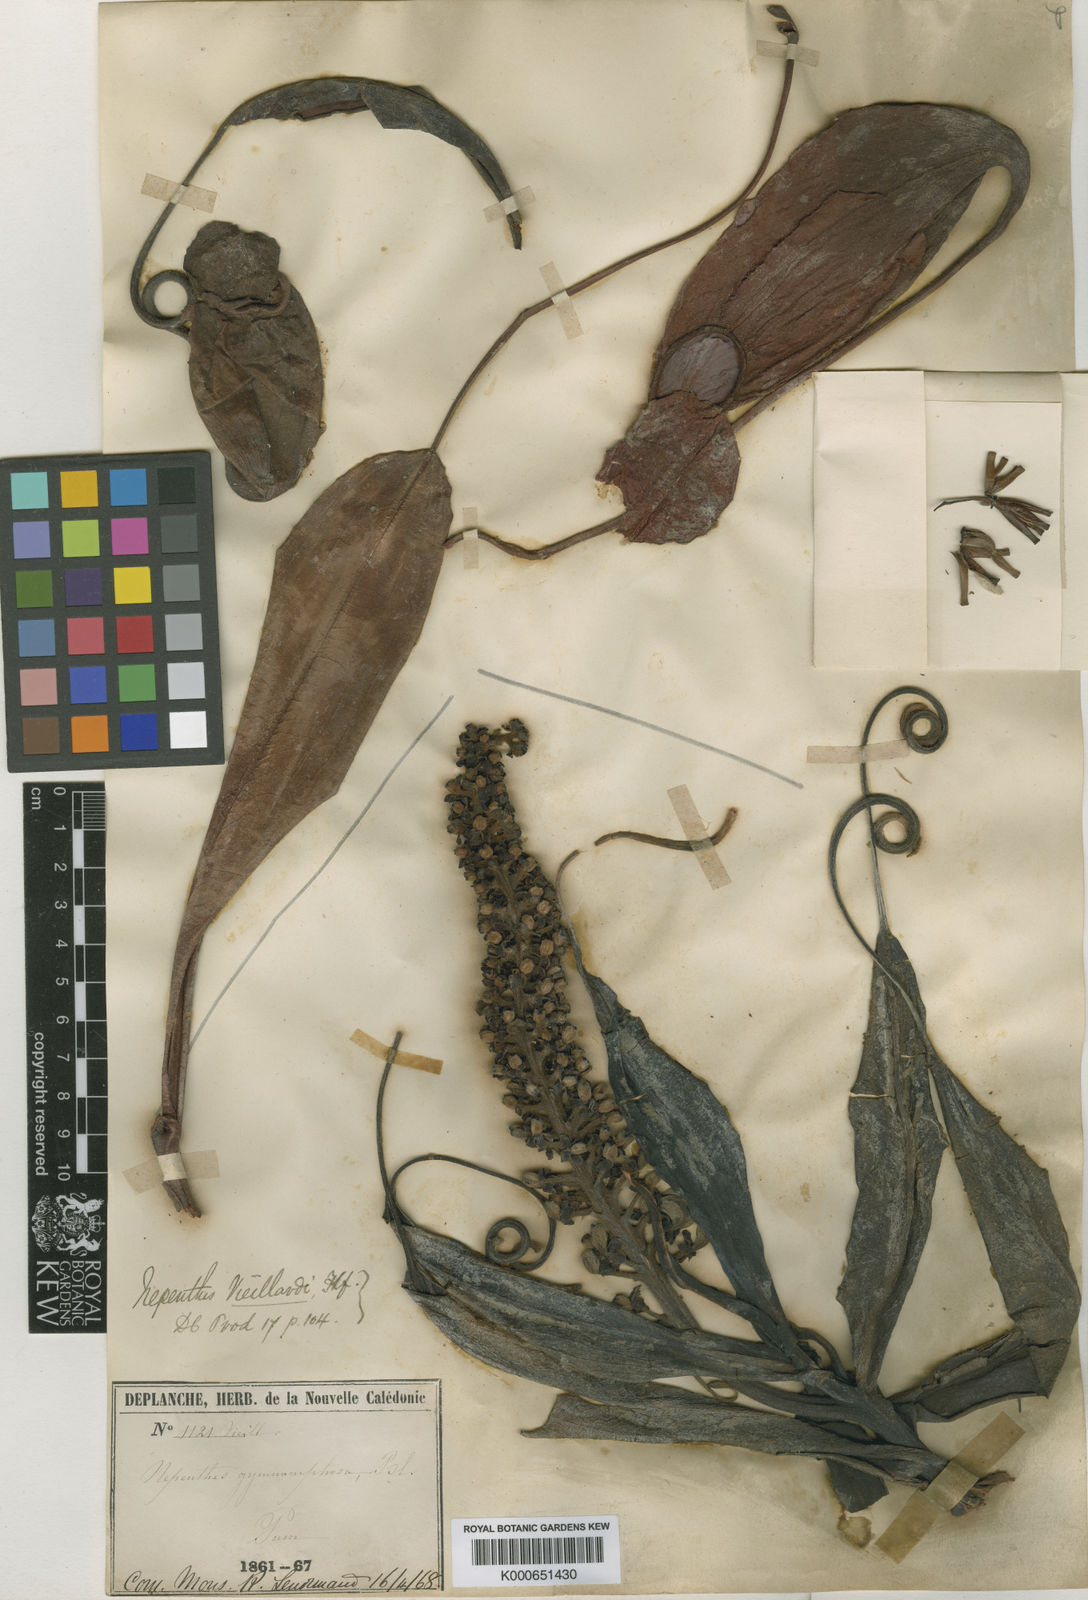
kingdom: Plantae
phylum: Tracheophyta
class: Magnoliopsida
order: Caryophyllales
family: Nepenthaceae
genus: Nepenthes
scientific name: Nepenthes vieillardii
